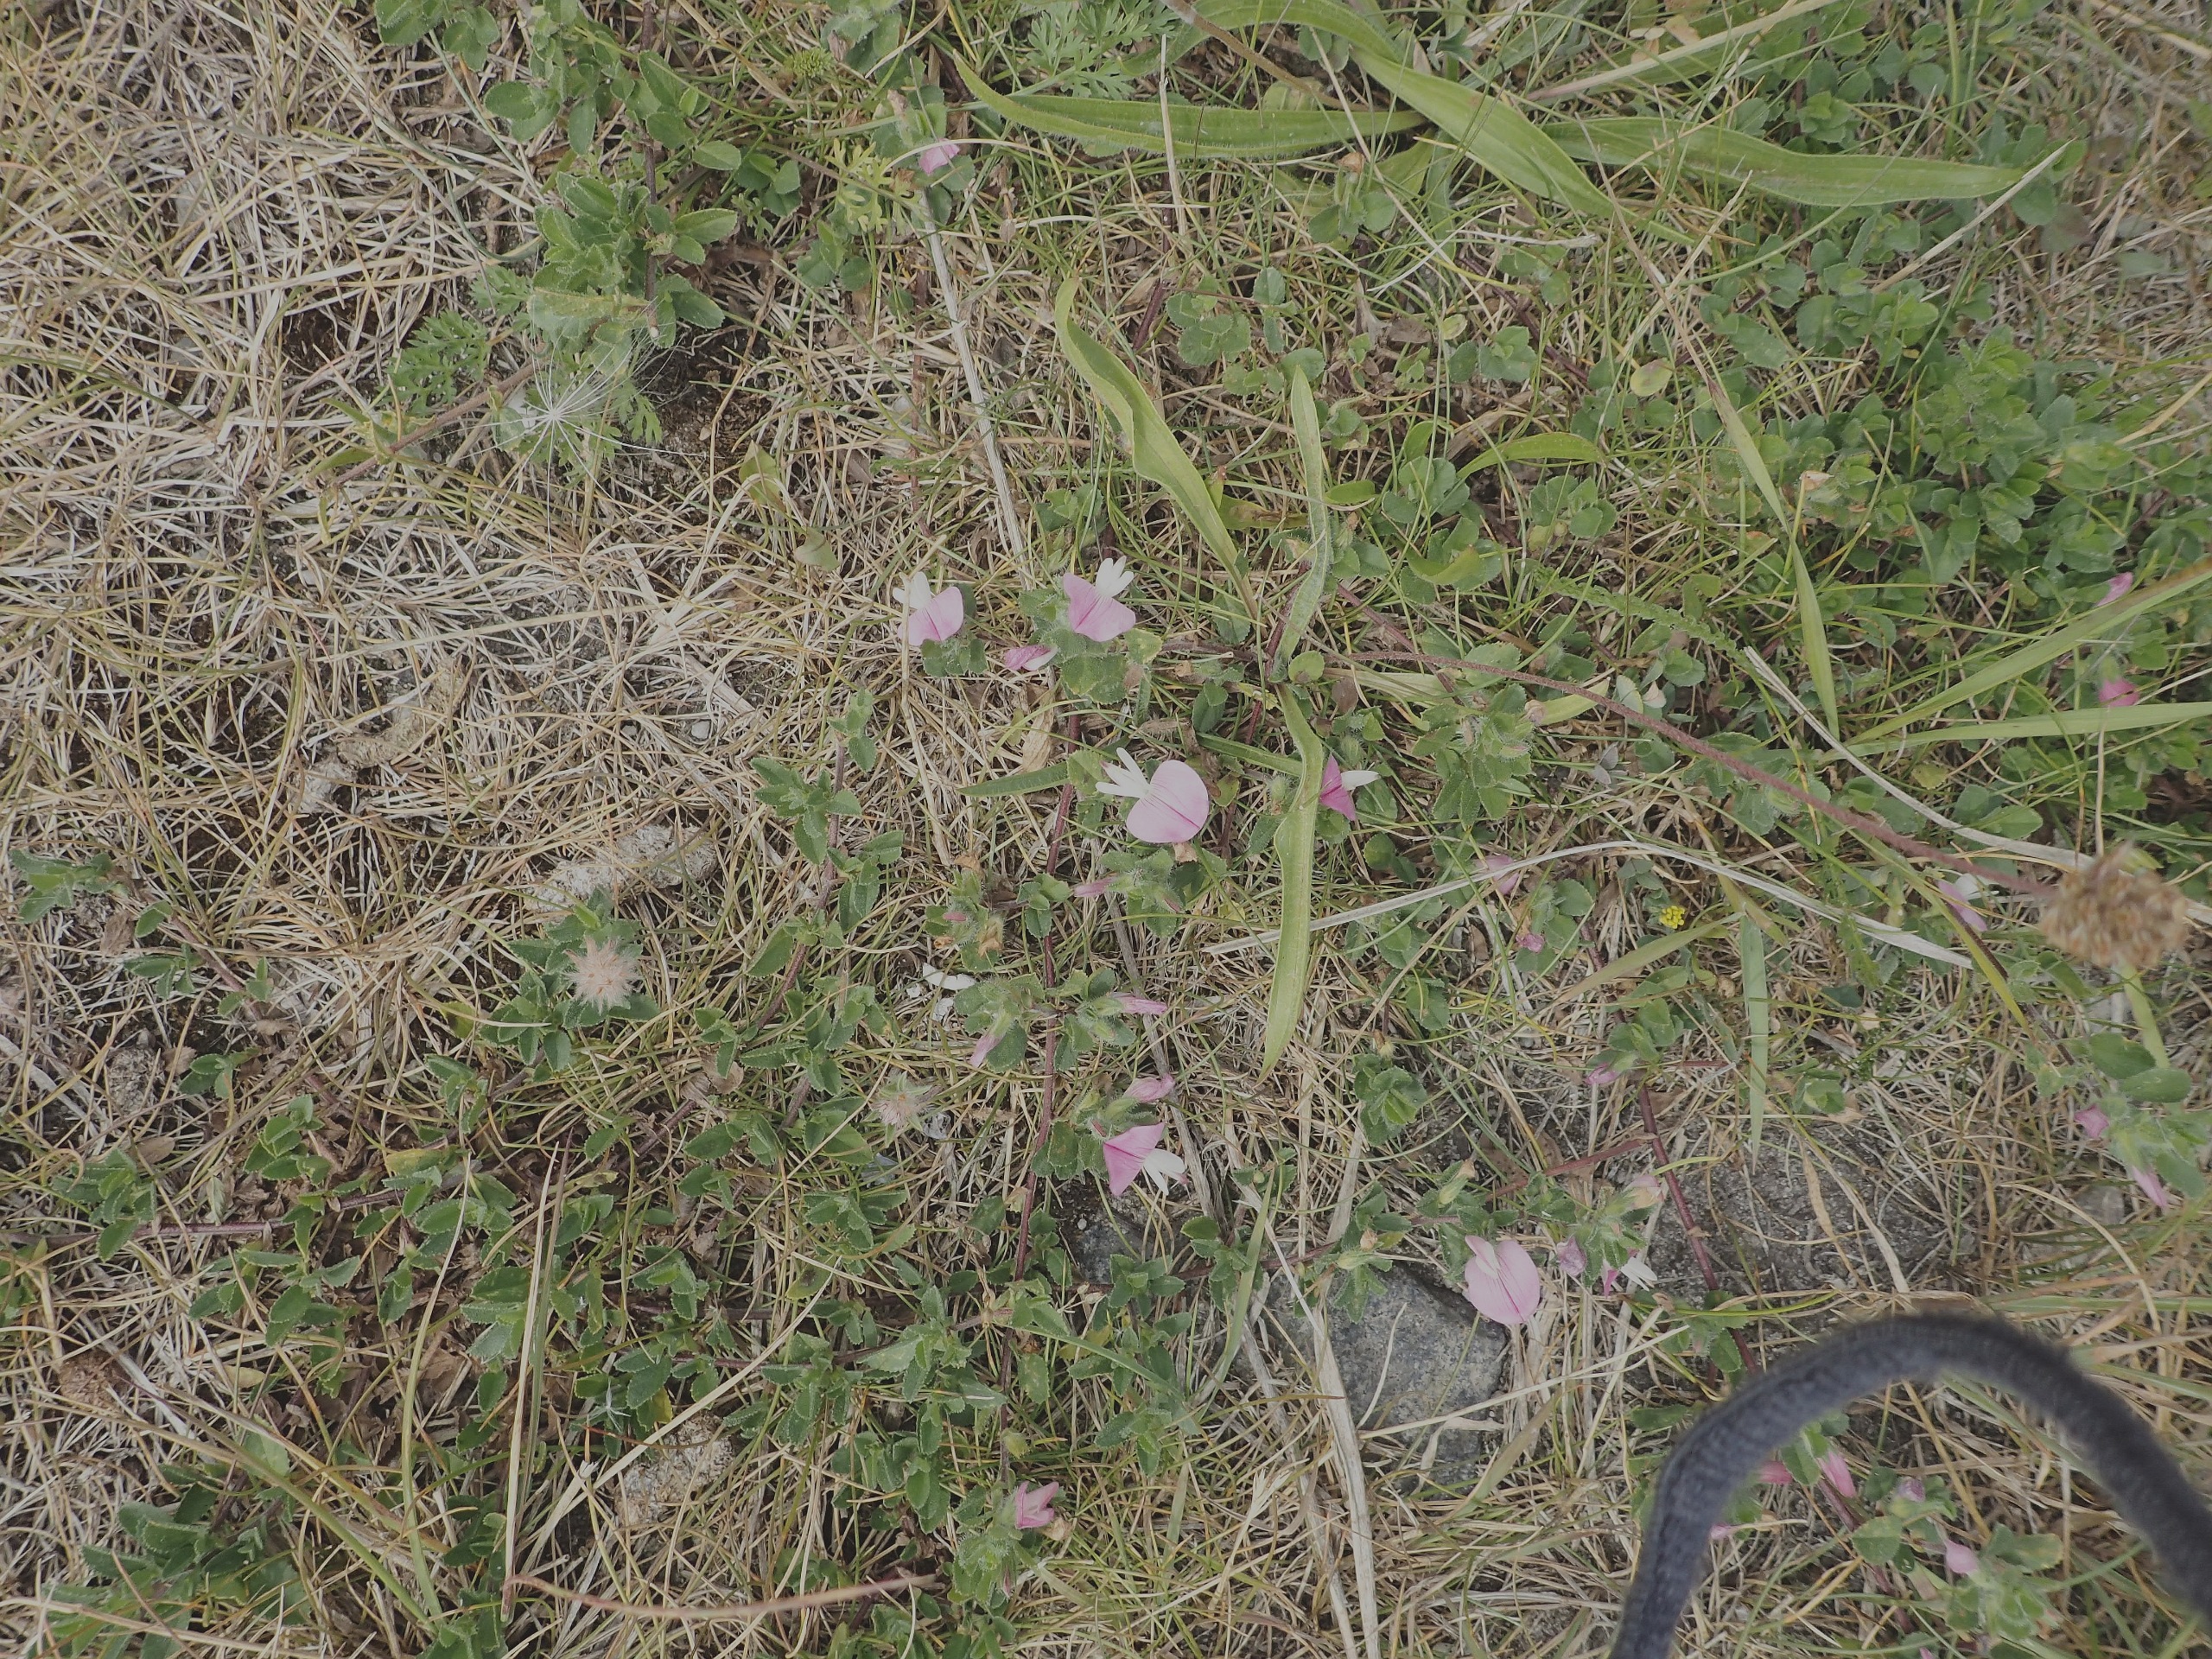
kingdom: Plantae
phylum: Tracheophyta
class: Magnoliopsida
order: Fabales
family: Fabaceae
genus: Ononis
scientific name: Ononis spinosa
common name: Mark-krageklo
